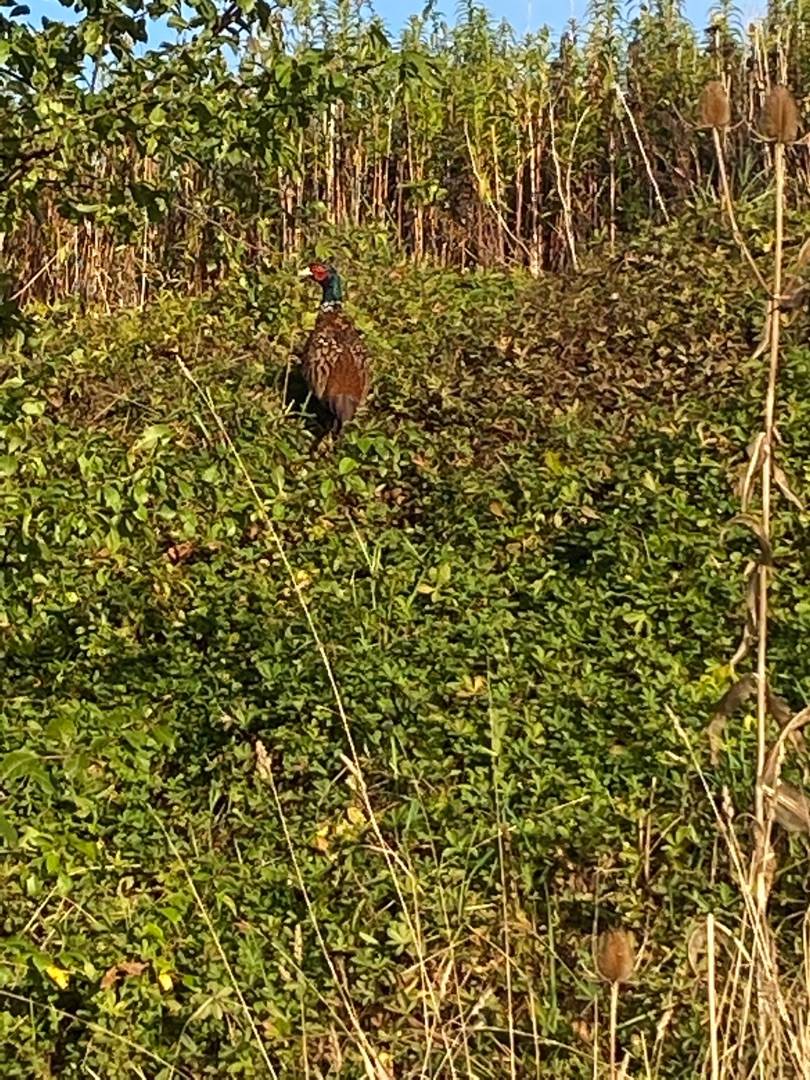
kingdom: Animalia
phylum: Chordata
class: Aves
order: Galliformes
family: Phasianidae
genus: Phasianus
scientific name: Phasianus colchicus
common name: Fasan
